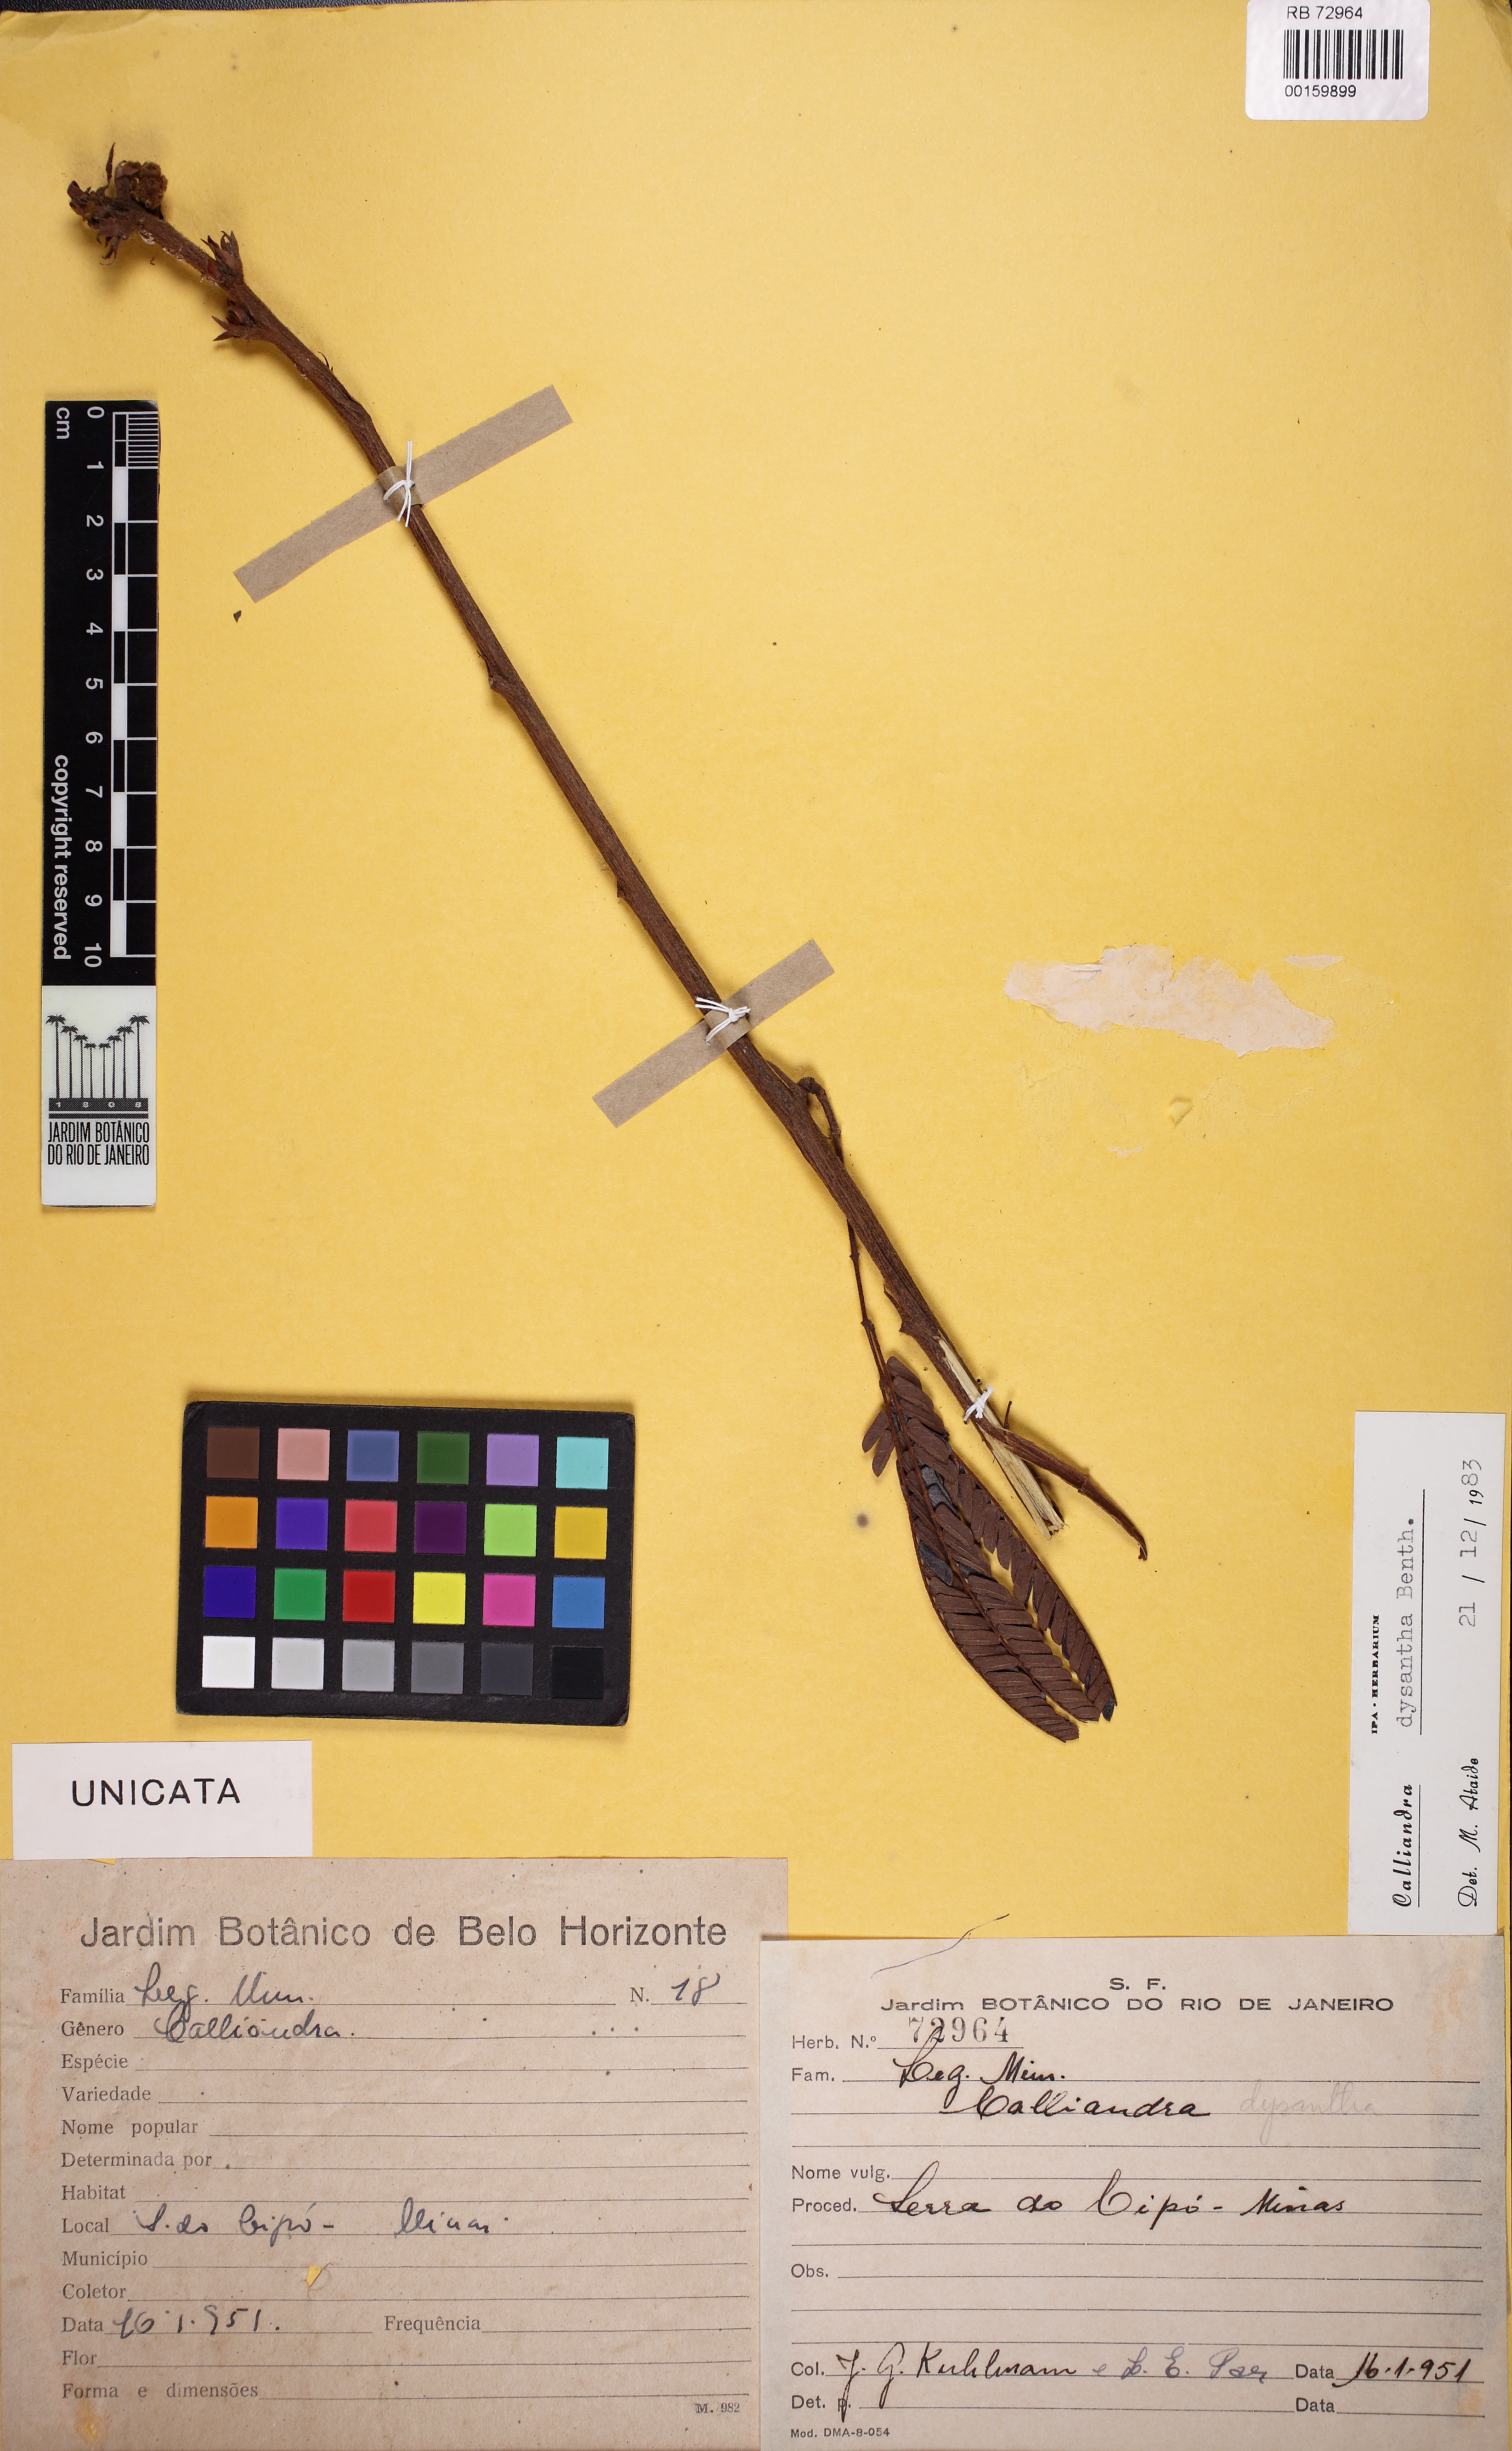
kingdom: Plantae
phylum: Tracheophyta
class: Magnoliopsida
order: Fabales
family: Fabaceae
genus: Calliandra
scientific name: Calliandra dysantha
